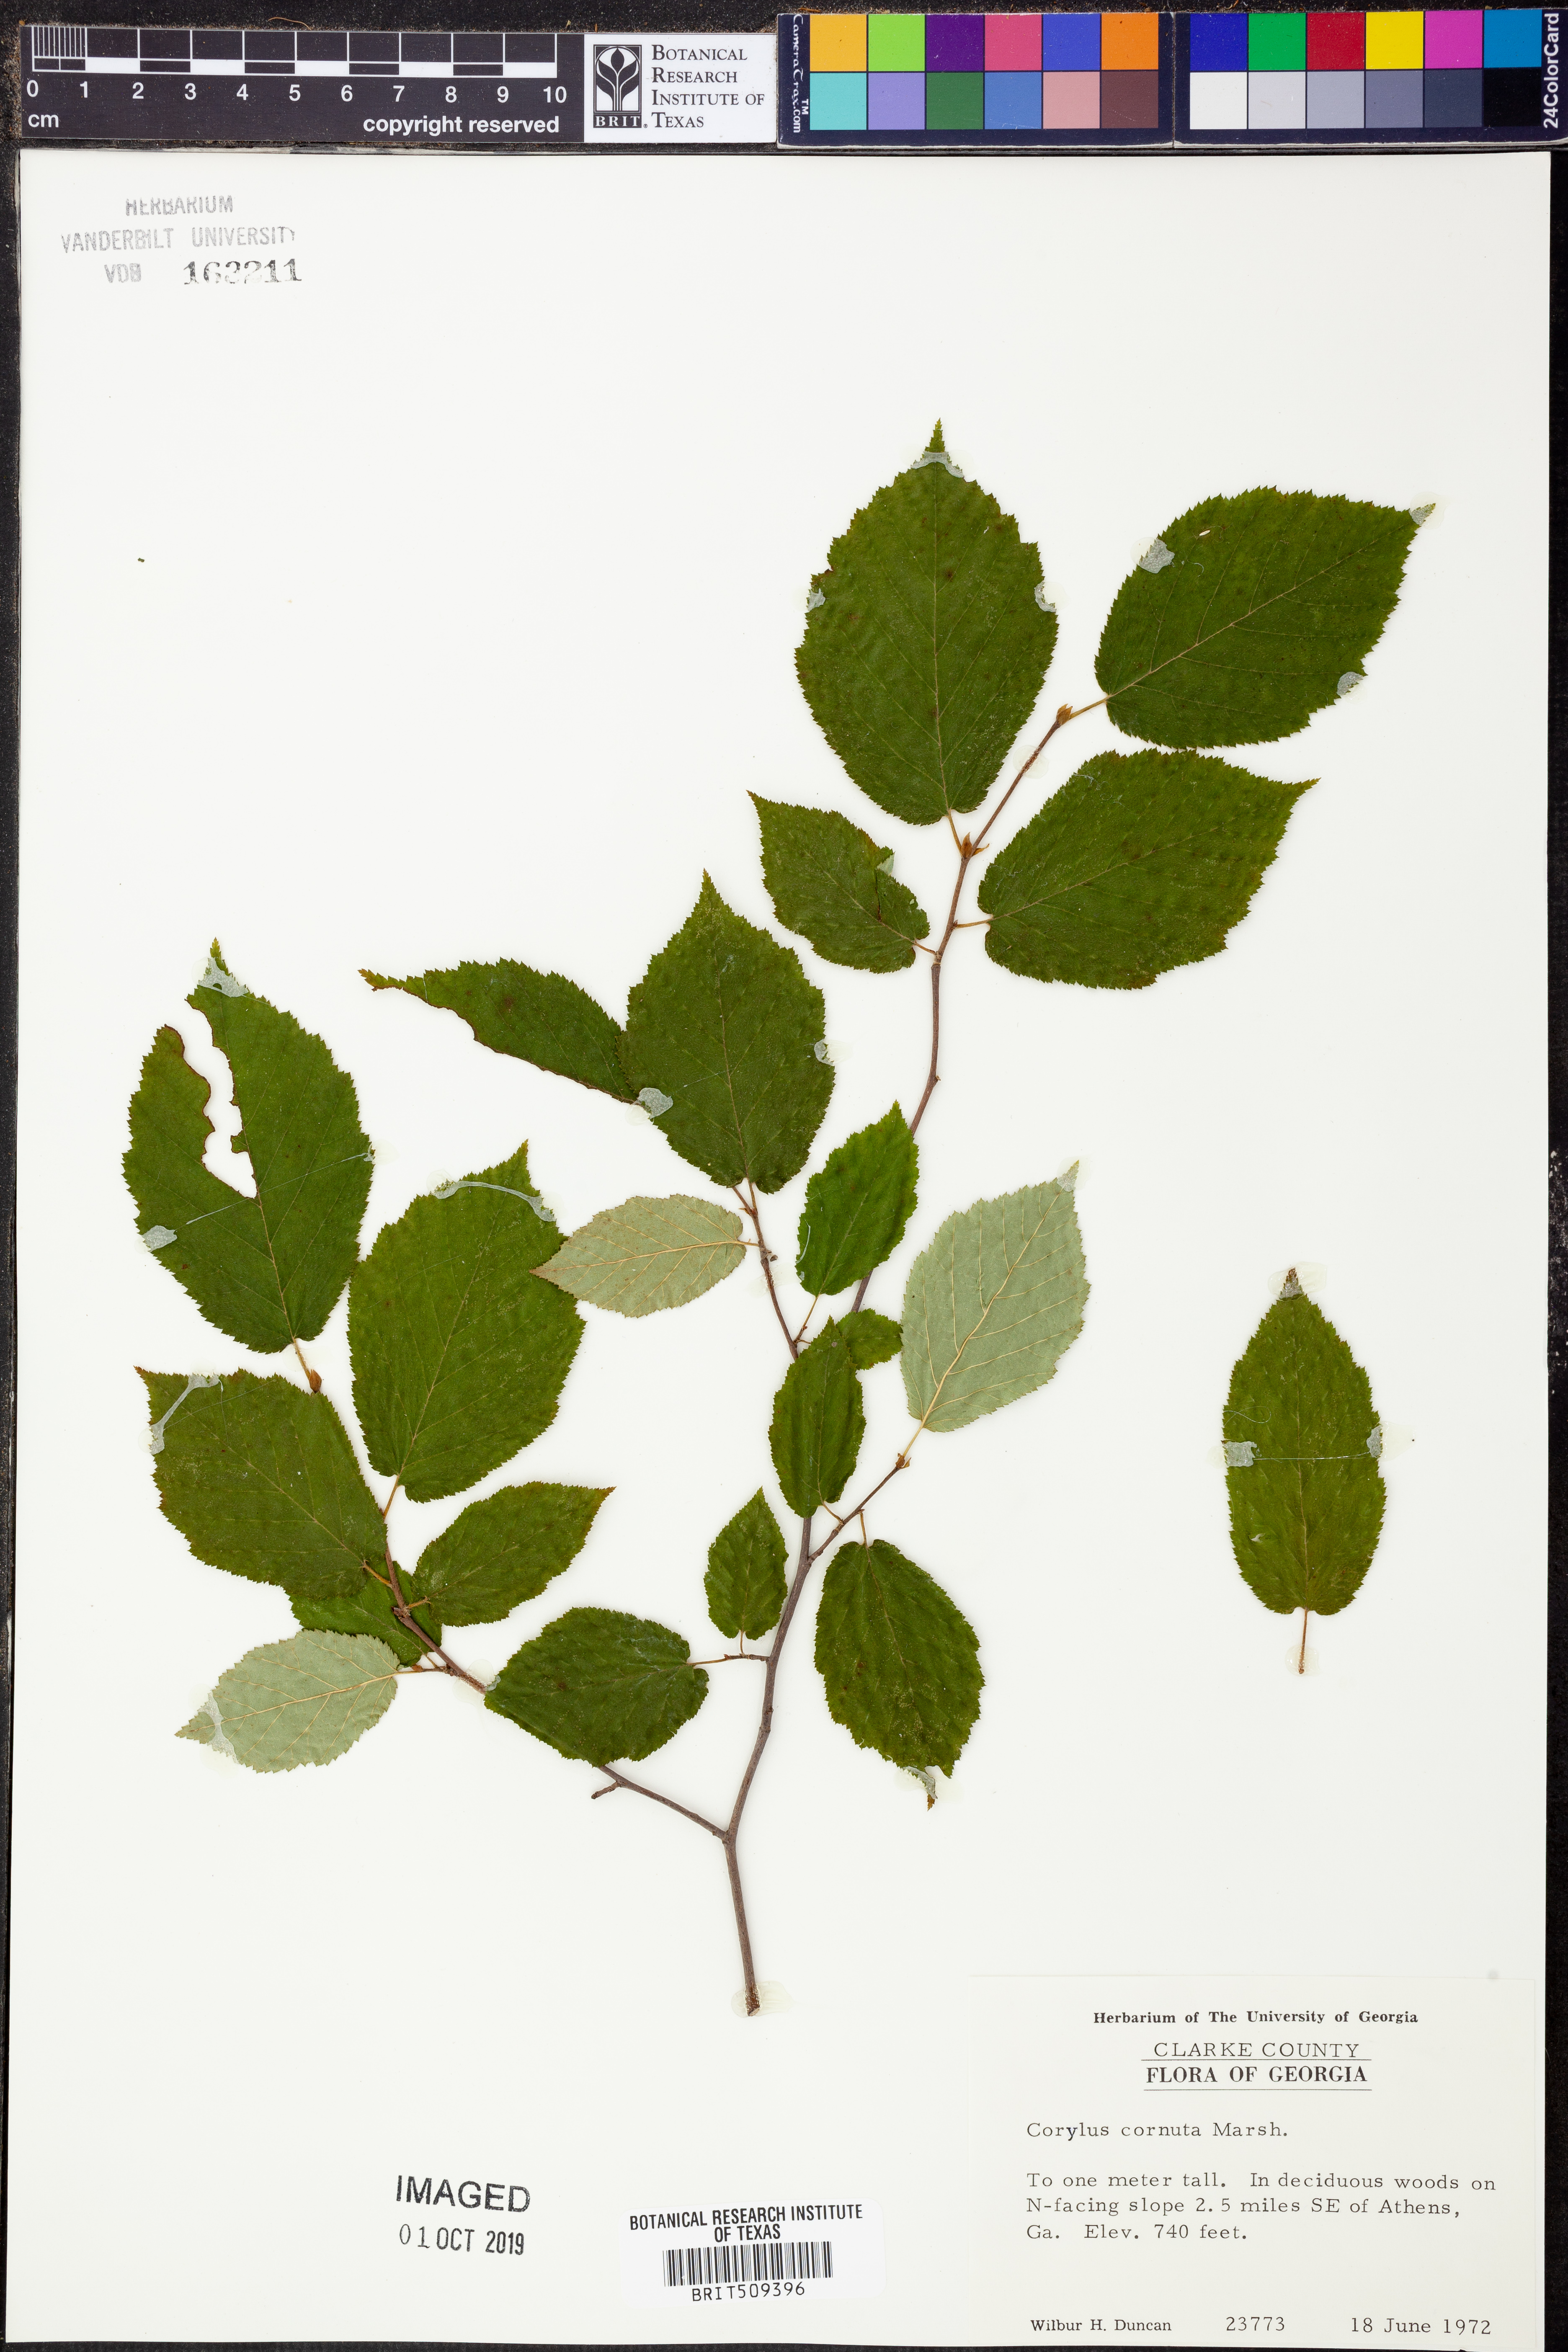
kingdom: Plantae
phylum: Tracheophyta
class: Magnoliopsida
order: Fagales
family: Betulaceae
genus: Corylus
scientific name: Corylus cornuta
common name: Beaked hazel
